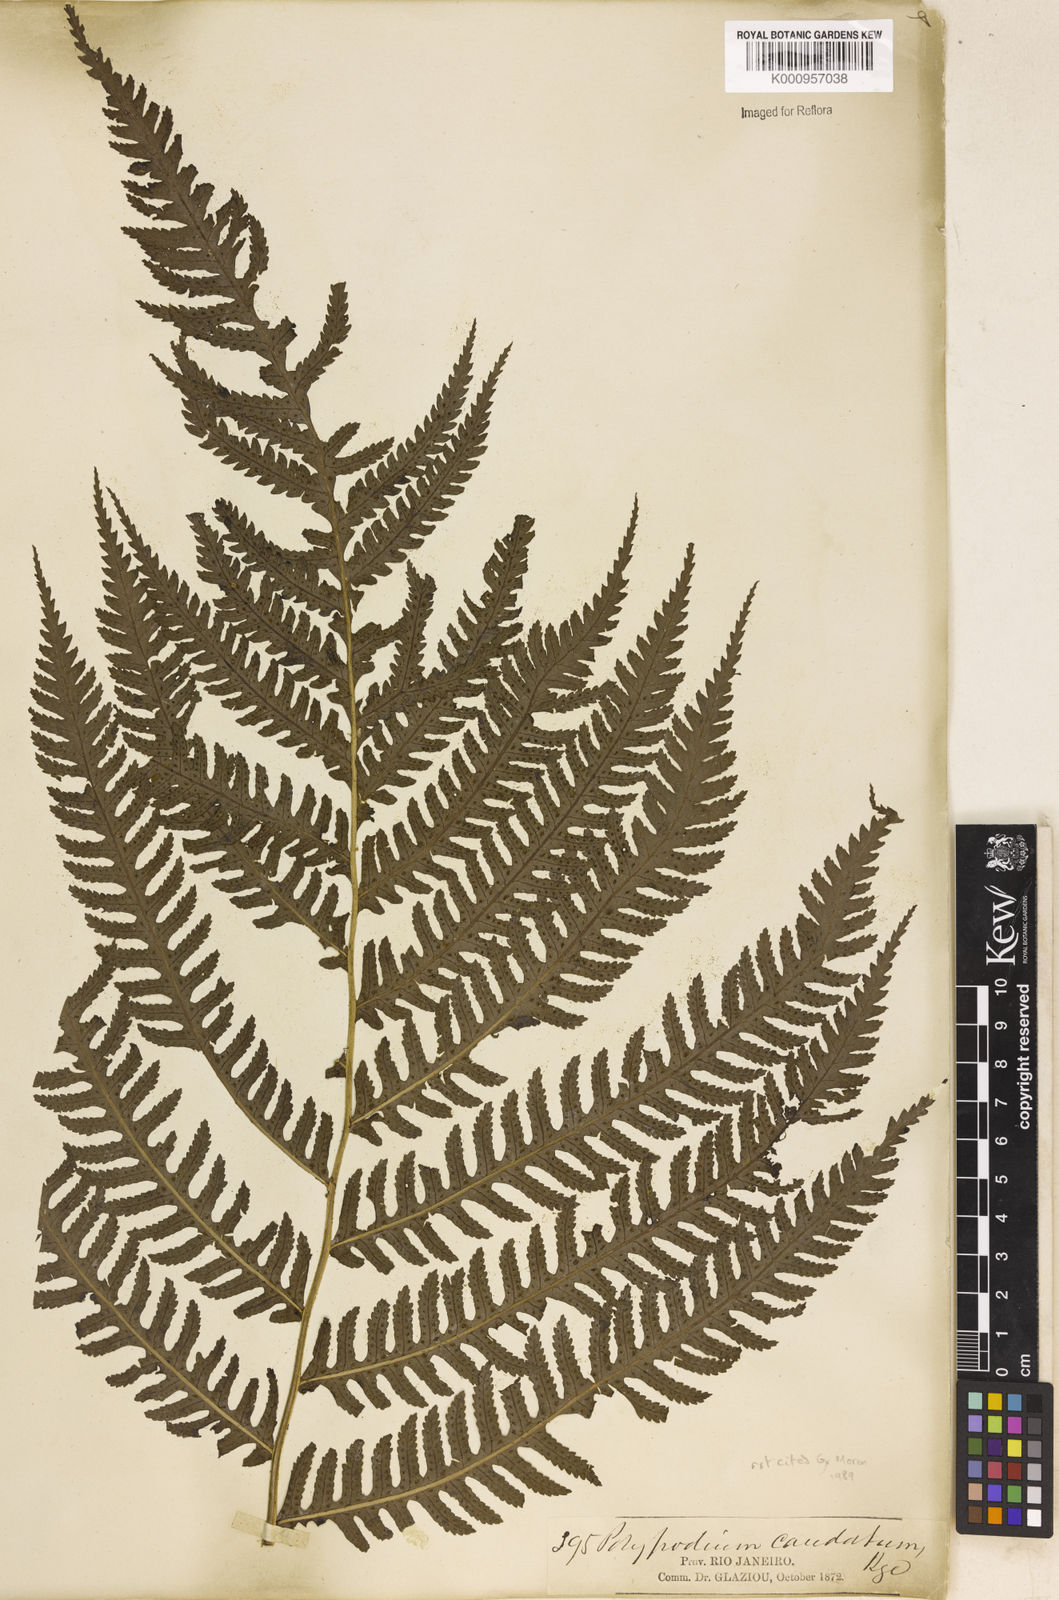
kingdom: Plantae
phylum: Tracheophyta
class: Polypodiopsida
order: Polypodiales
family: Dryopteridaceae
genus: Stigmatopteris
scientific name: Stigmatopteris caudata
